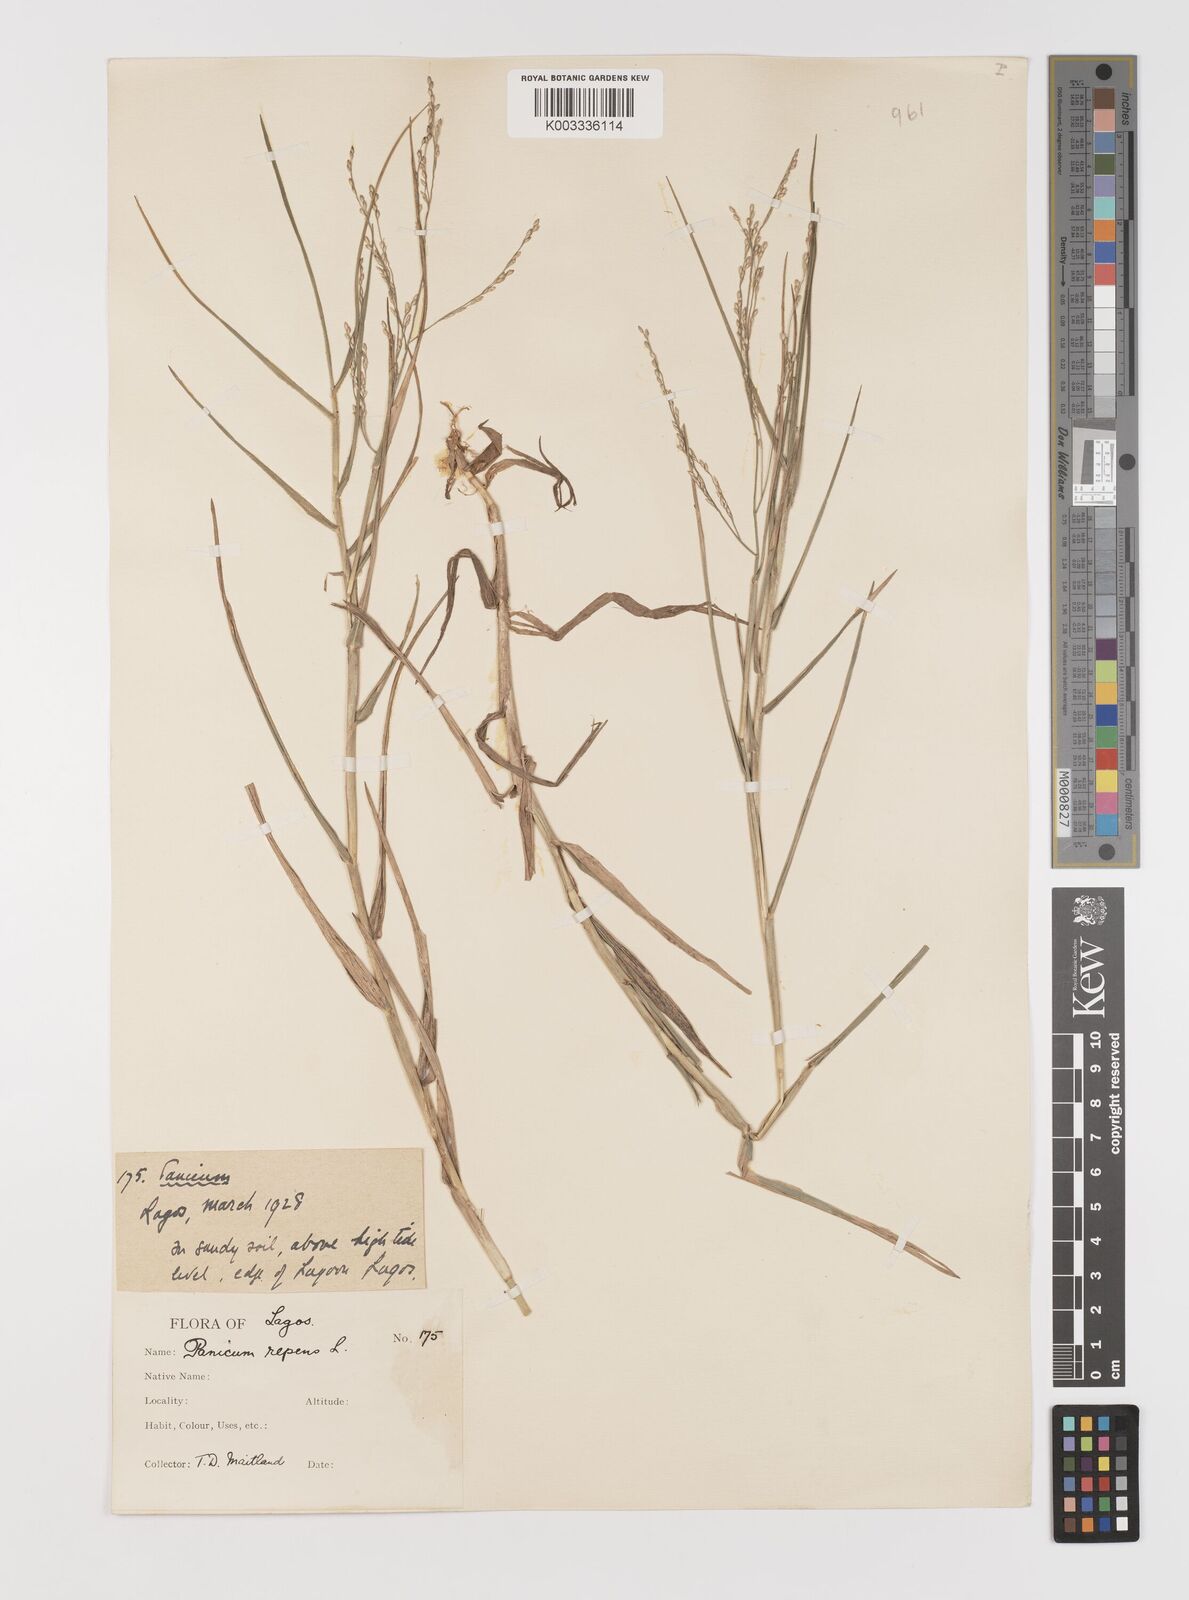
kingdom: Plantae
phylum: Tracheophyta
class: Liliopsida
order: Poales
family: Poaceae
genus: Panicum
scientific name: Panicum repens
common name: Torpedo grass
